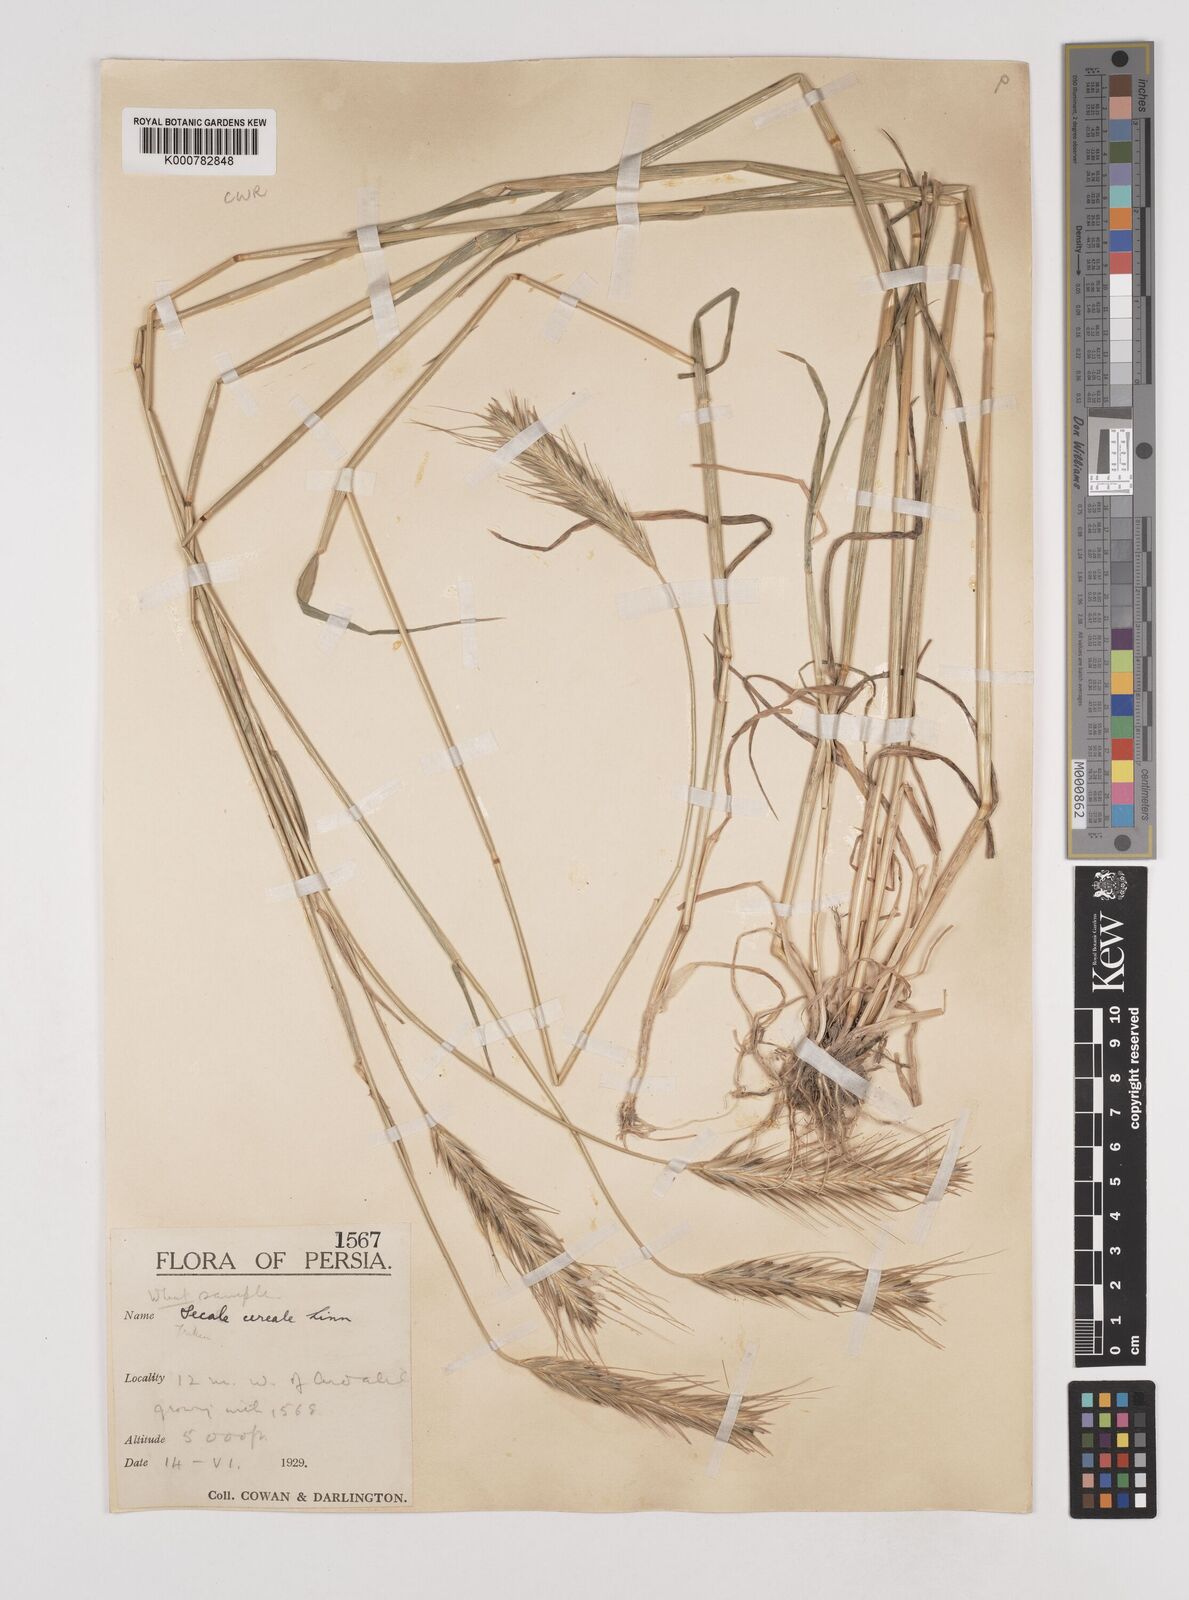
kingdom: Plantae
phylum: Tracheophyta
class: Liliopsida
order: Poales
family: Poaceae
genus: Secale
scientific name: Secale cereale
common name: Rye
